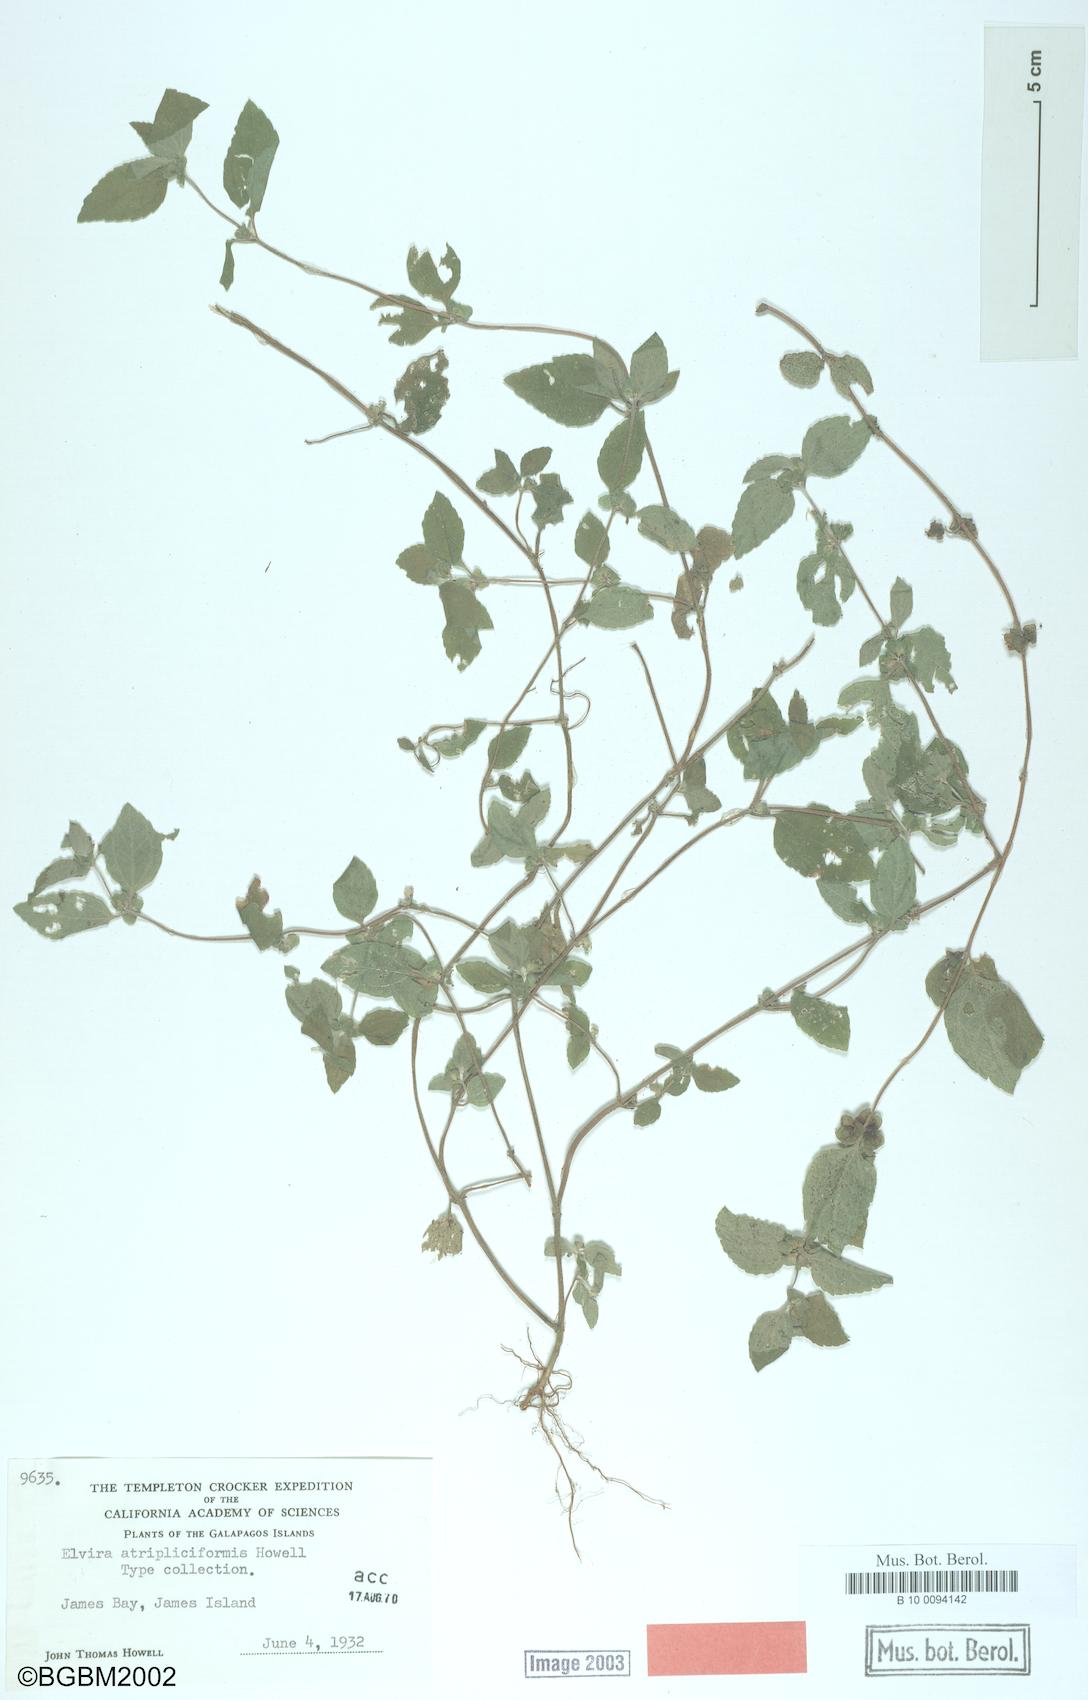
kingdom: Plantae
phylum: Tracheophyta
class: Magnoliopsida
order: Asterales
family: Asteraceae
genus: Delilia
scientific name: Delilia repens
